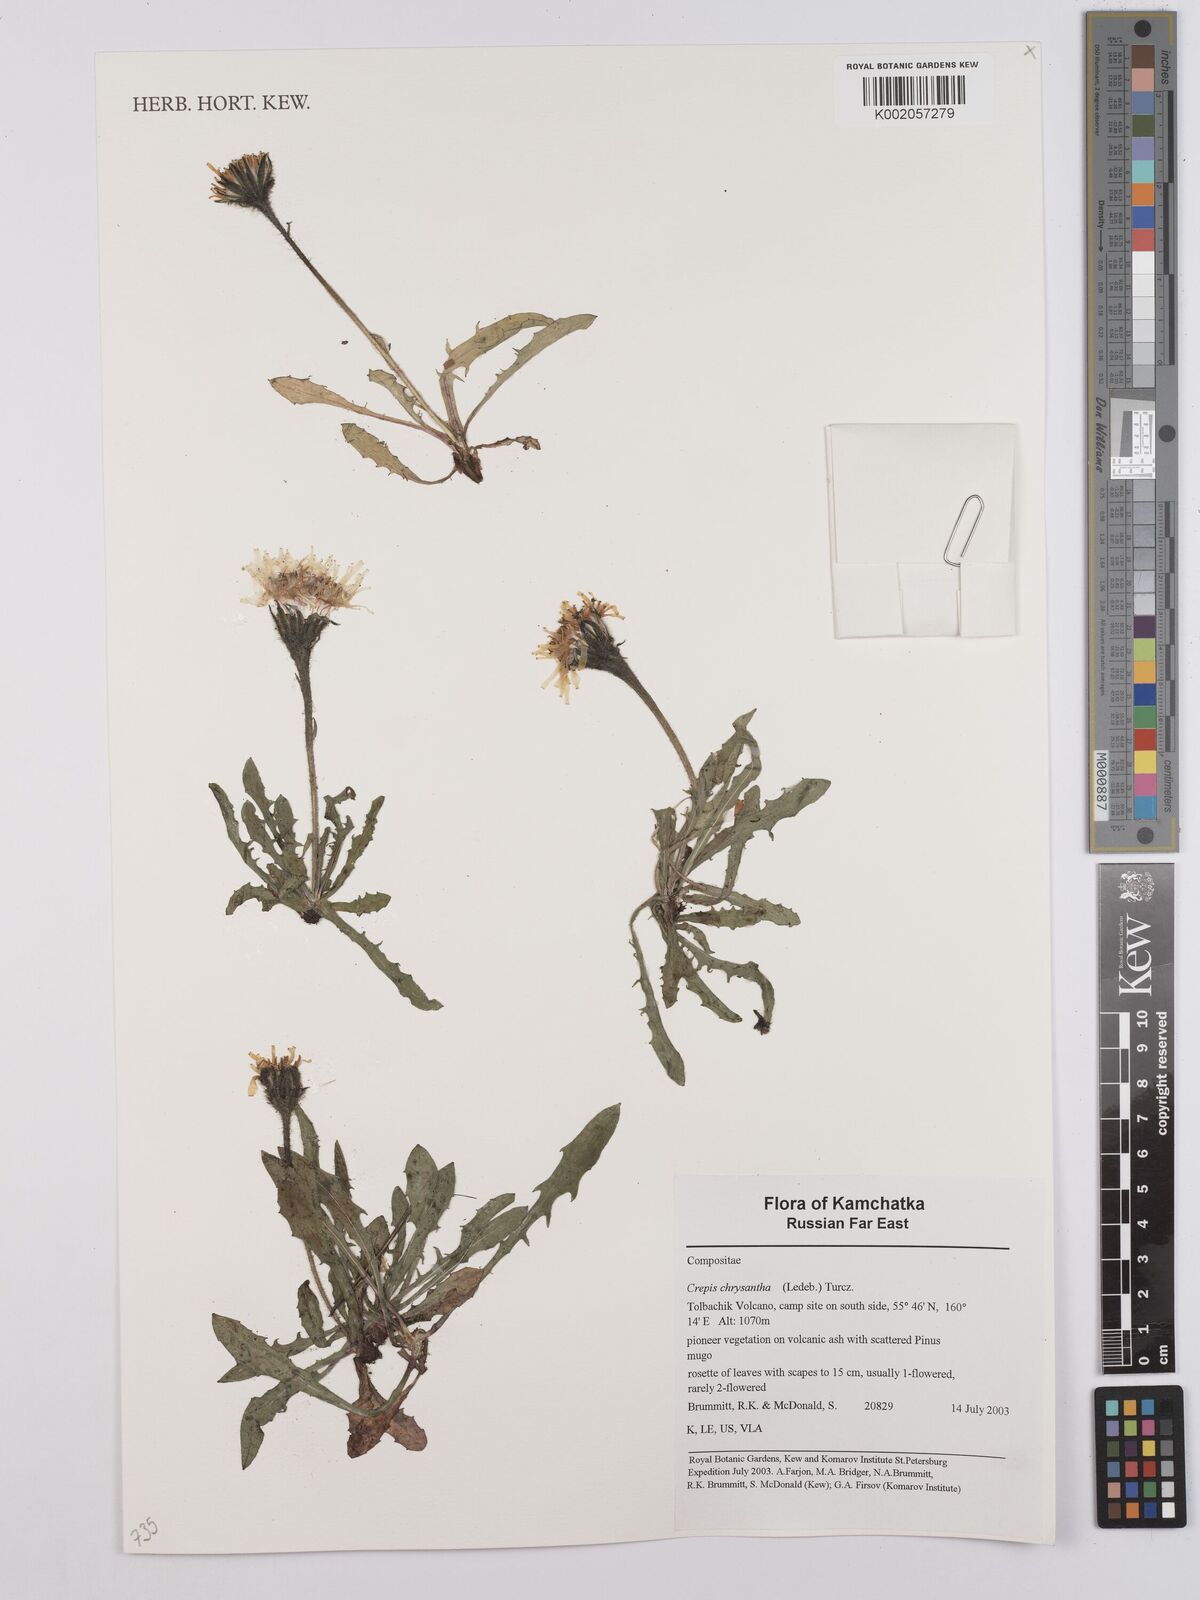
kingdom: Plantae
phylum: Tracheophyta
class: Magnoliopsida
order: Asterales
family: Asteraceae
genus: Crepis
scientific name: Crepis chrysantha
